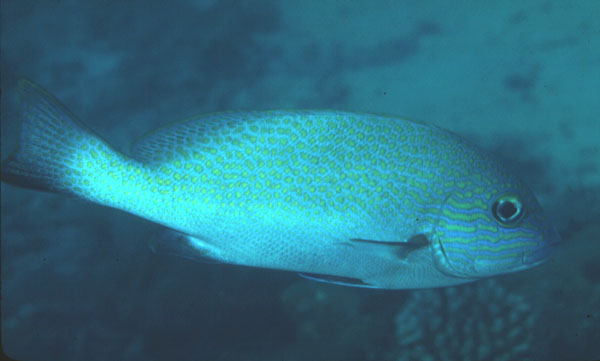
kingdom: Animalia
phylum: Chordata
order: Perciformes
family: Haemulidae
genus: Plectorhinchus
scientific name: Plectorhinchus flavomaculatus
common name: Netted sweetlips
